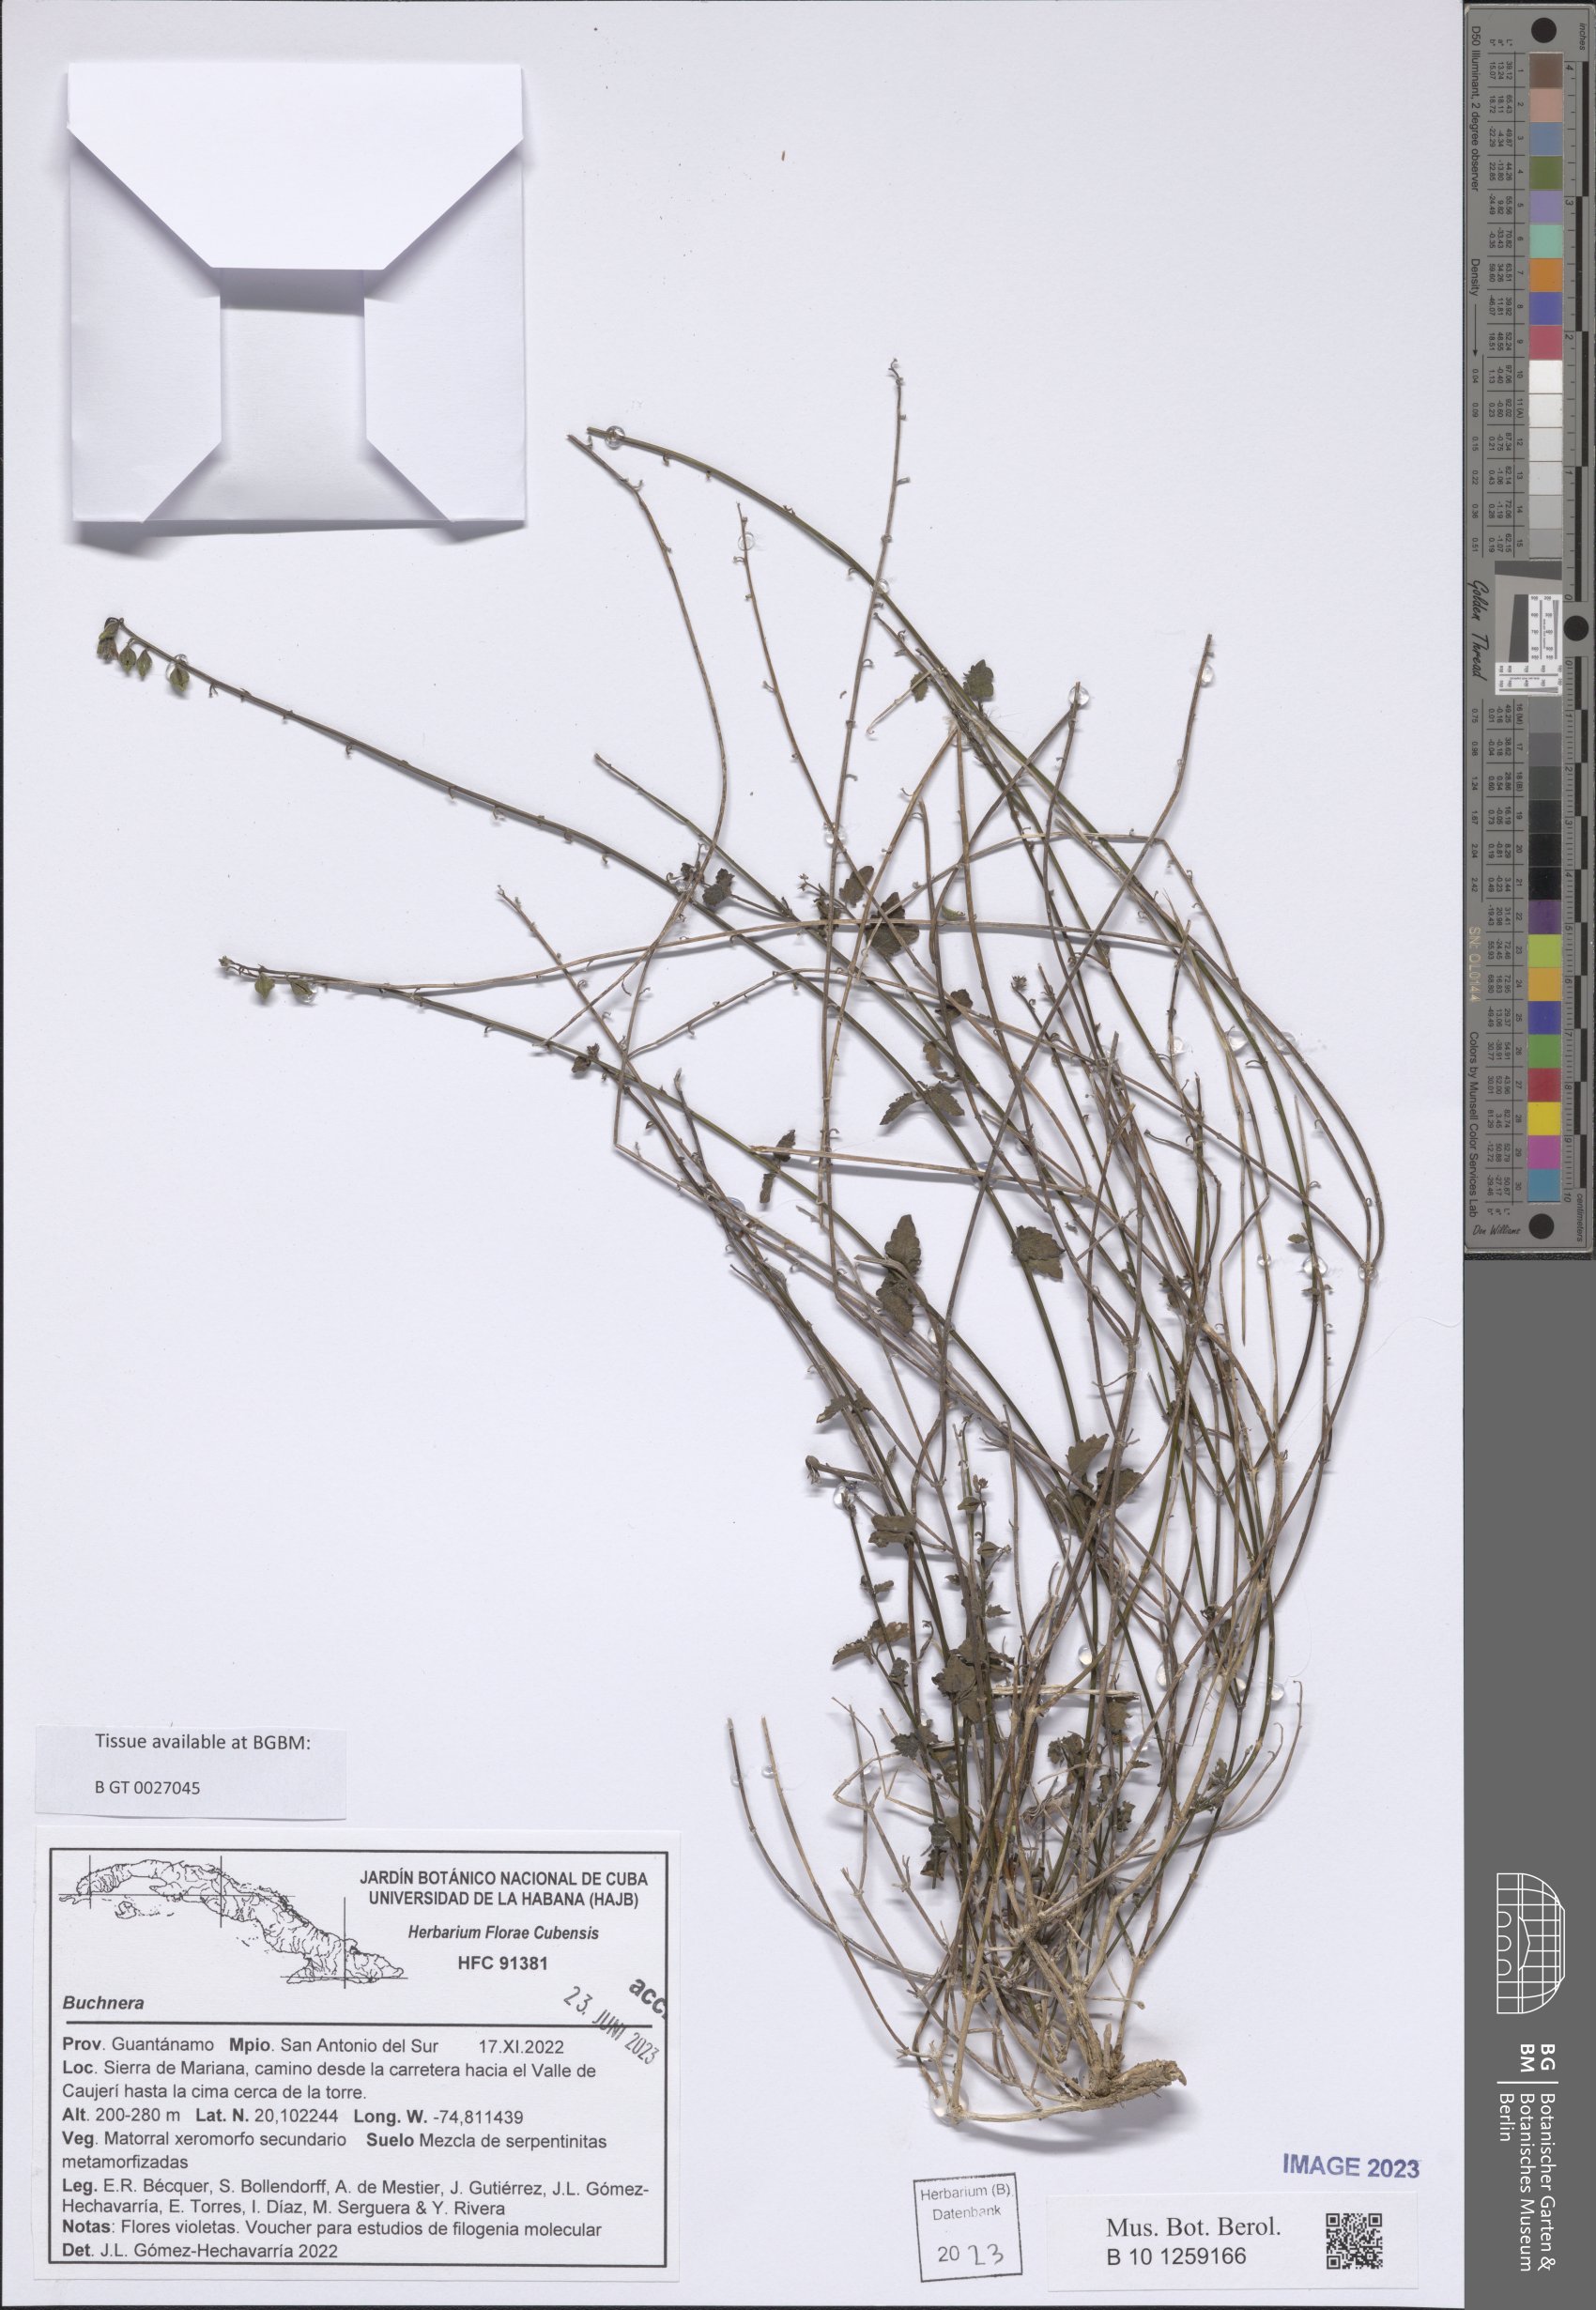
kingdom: Plantae
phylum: Tracheophyta
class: Magnoliopsida
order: Lamiales
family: Orobanchaceae
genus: Buchnera
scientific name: Buchnera
